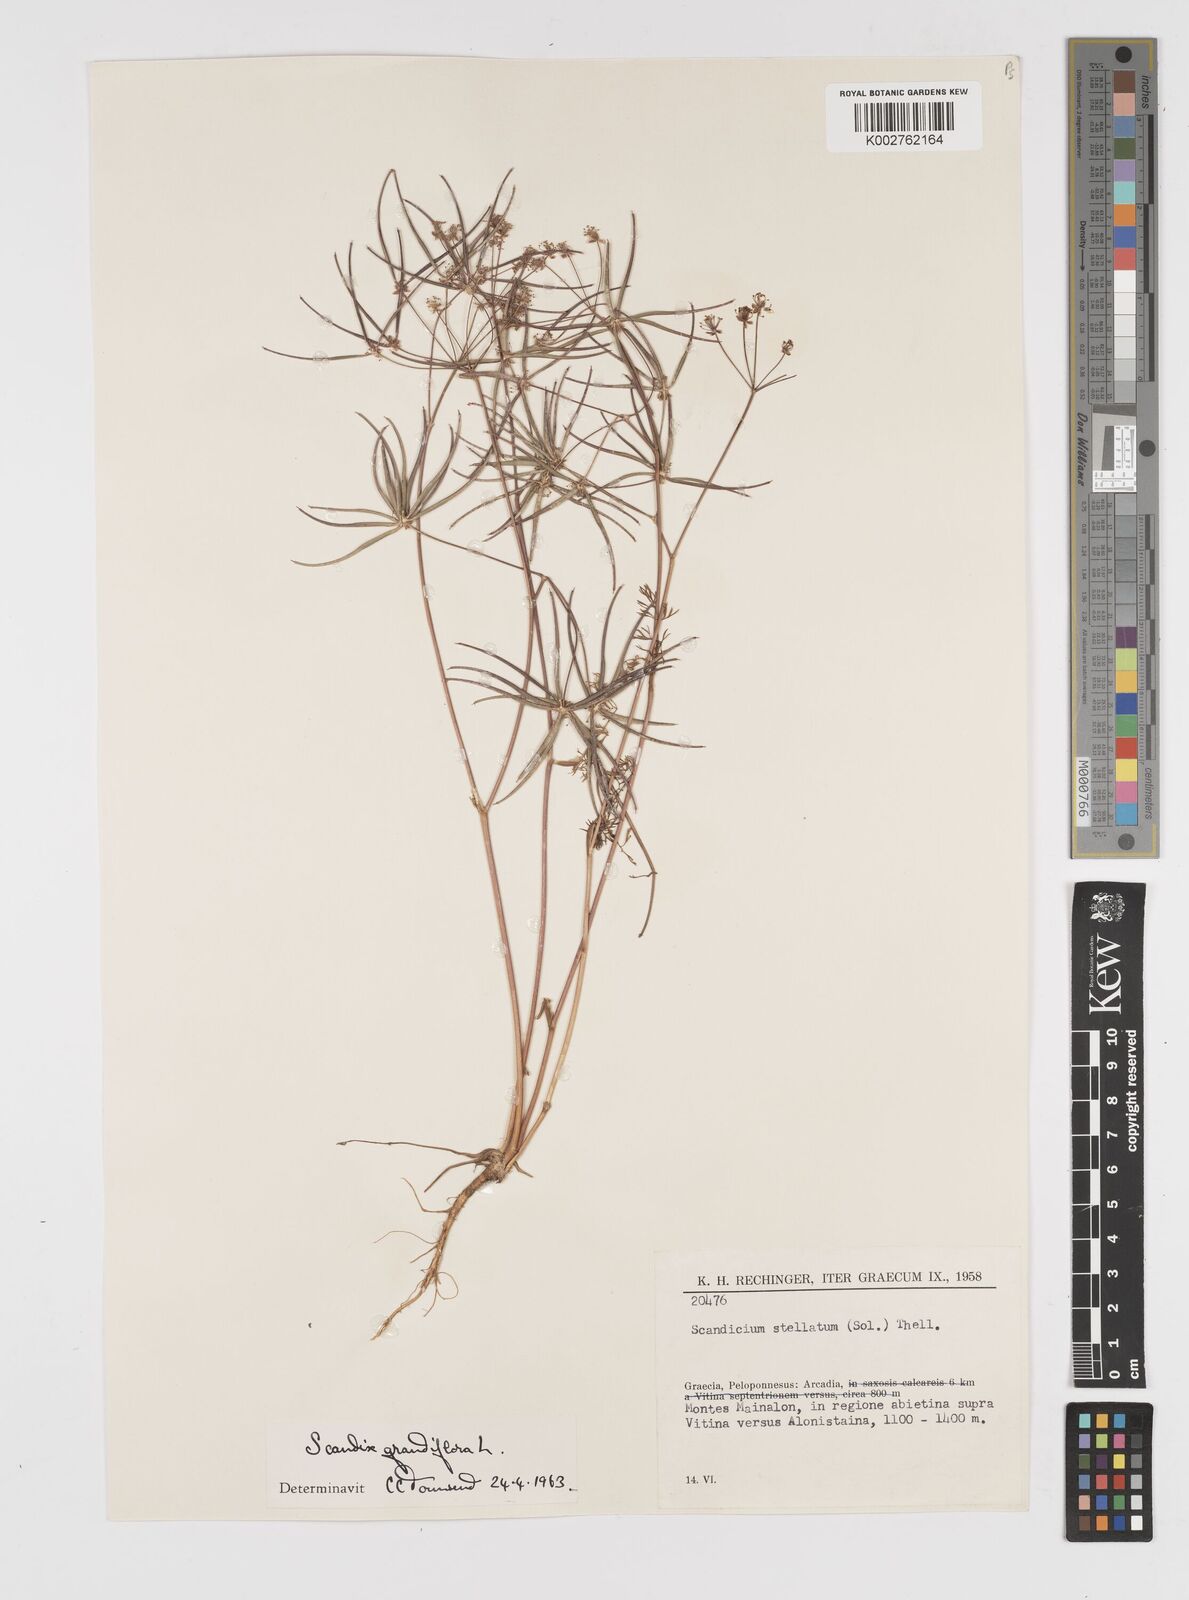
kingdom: Plantae
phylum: Tracheophyta
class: Magnoliopsida
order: Apiales
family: Apiaceae
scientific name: Apiaceae
